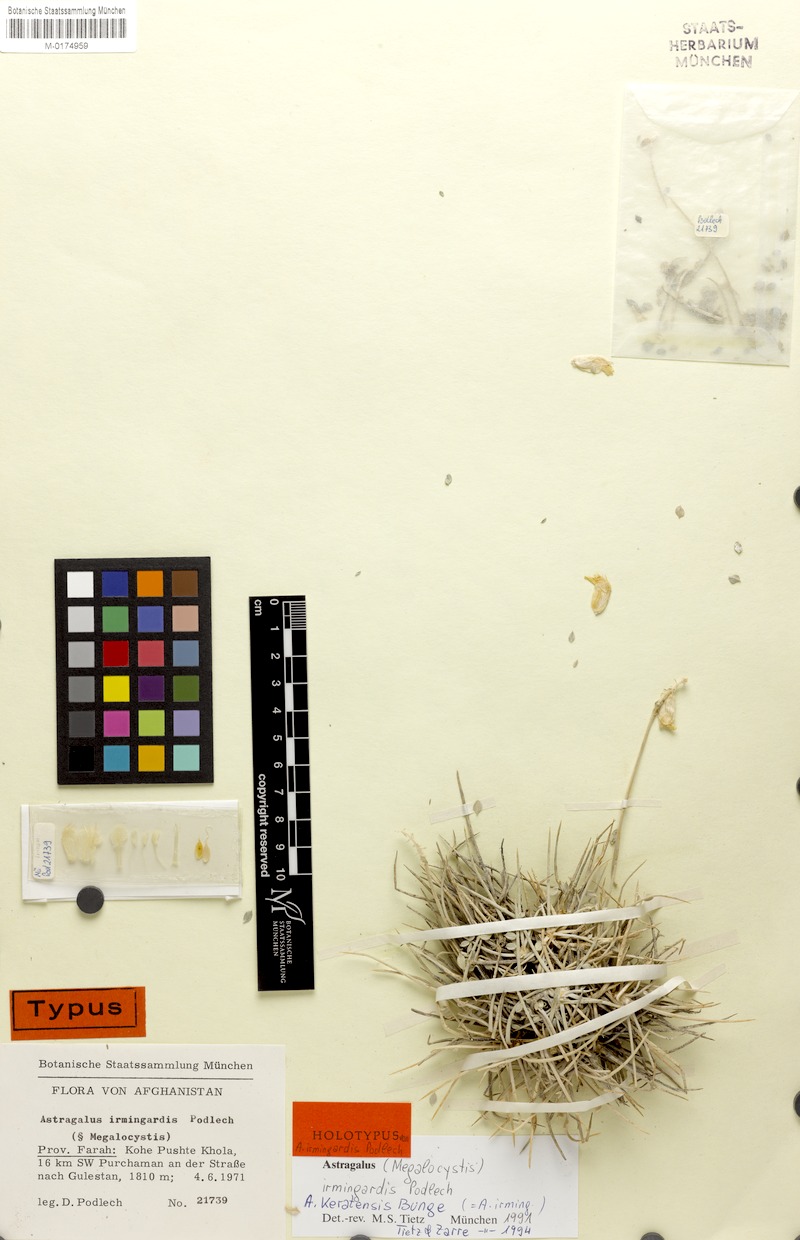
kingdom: Plantae
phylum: Tracheophyta
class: Magnoliopsida
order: Fabales
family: Fabaceae
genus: Astragalus
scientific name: Astragalus keratensis
